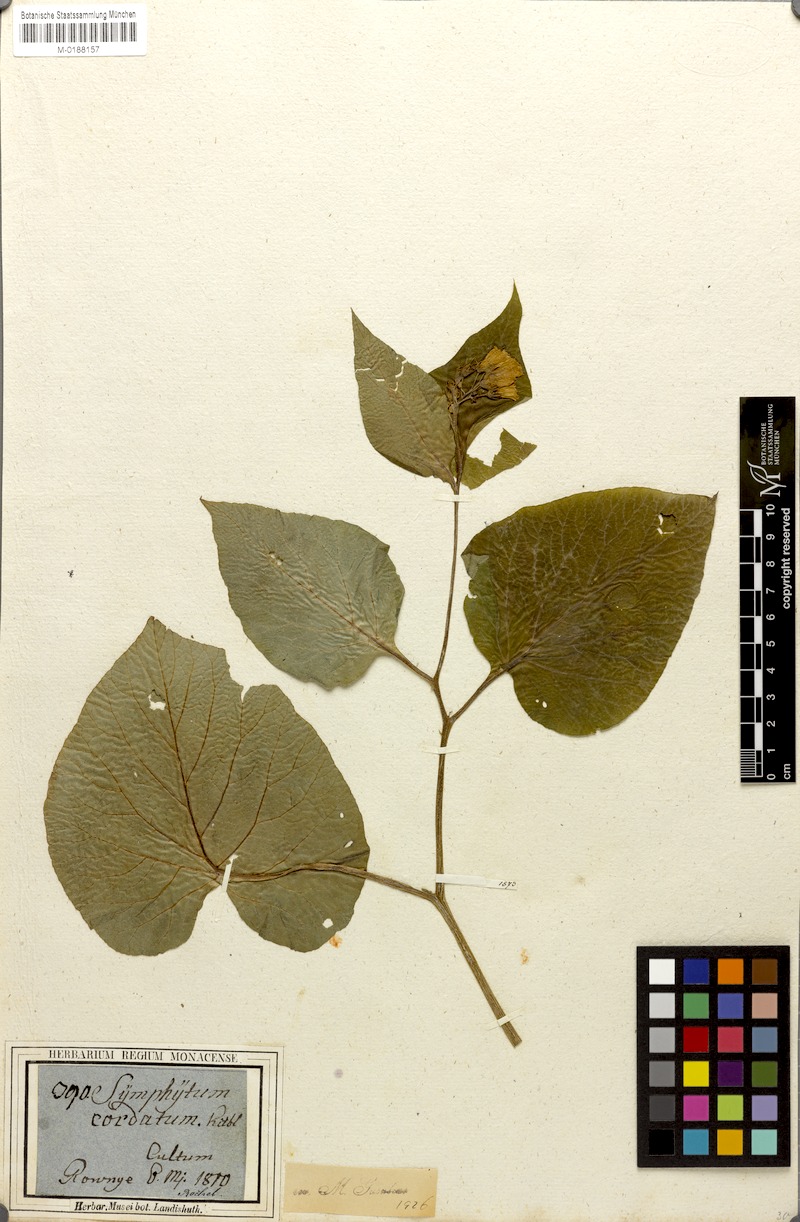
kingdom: Plantae
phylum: Tracheophyta
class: Magnoliopsida
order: Boraginales
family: Boraginaceae
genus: Symphytum
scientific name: Symphytum cordatum
